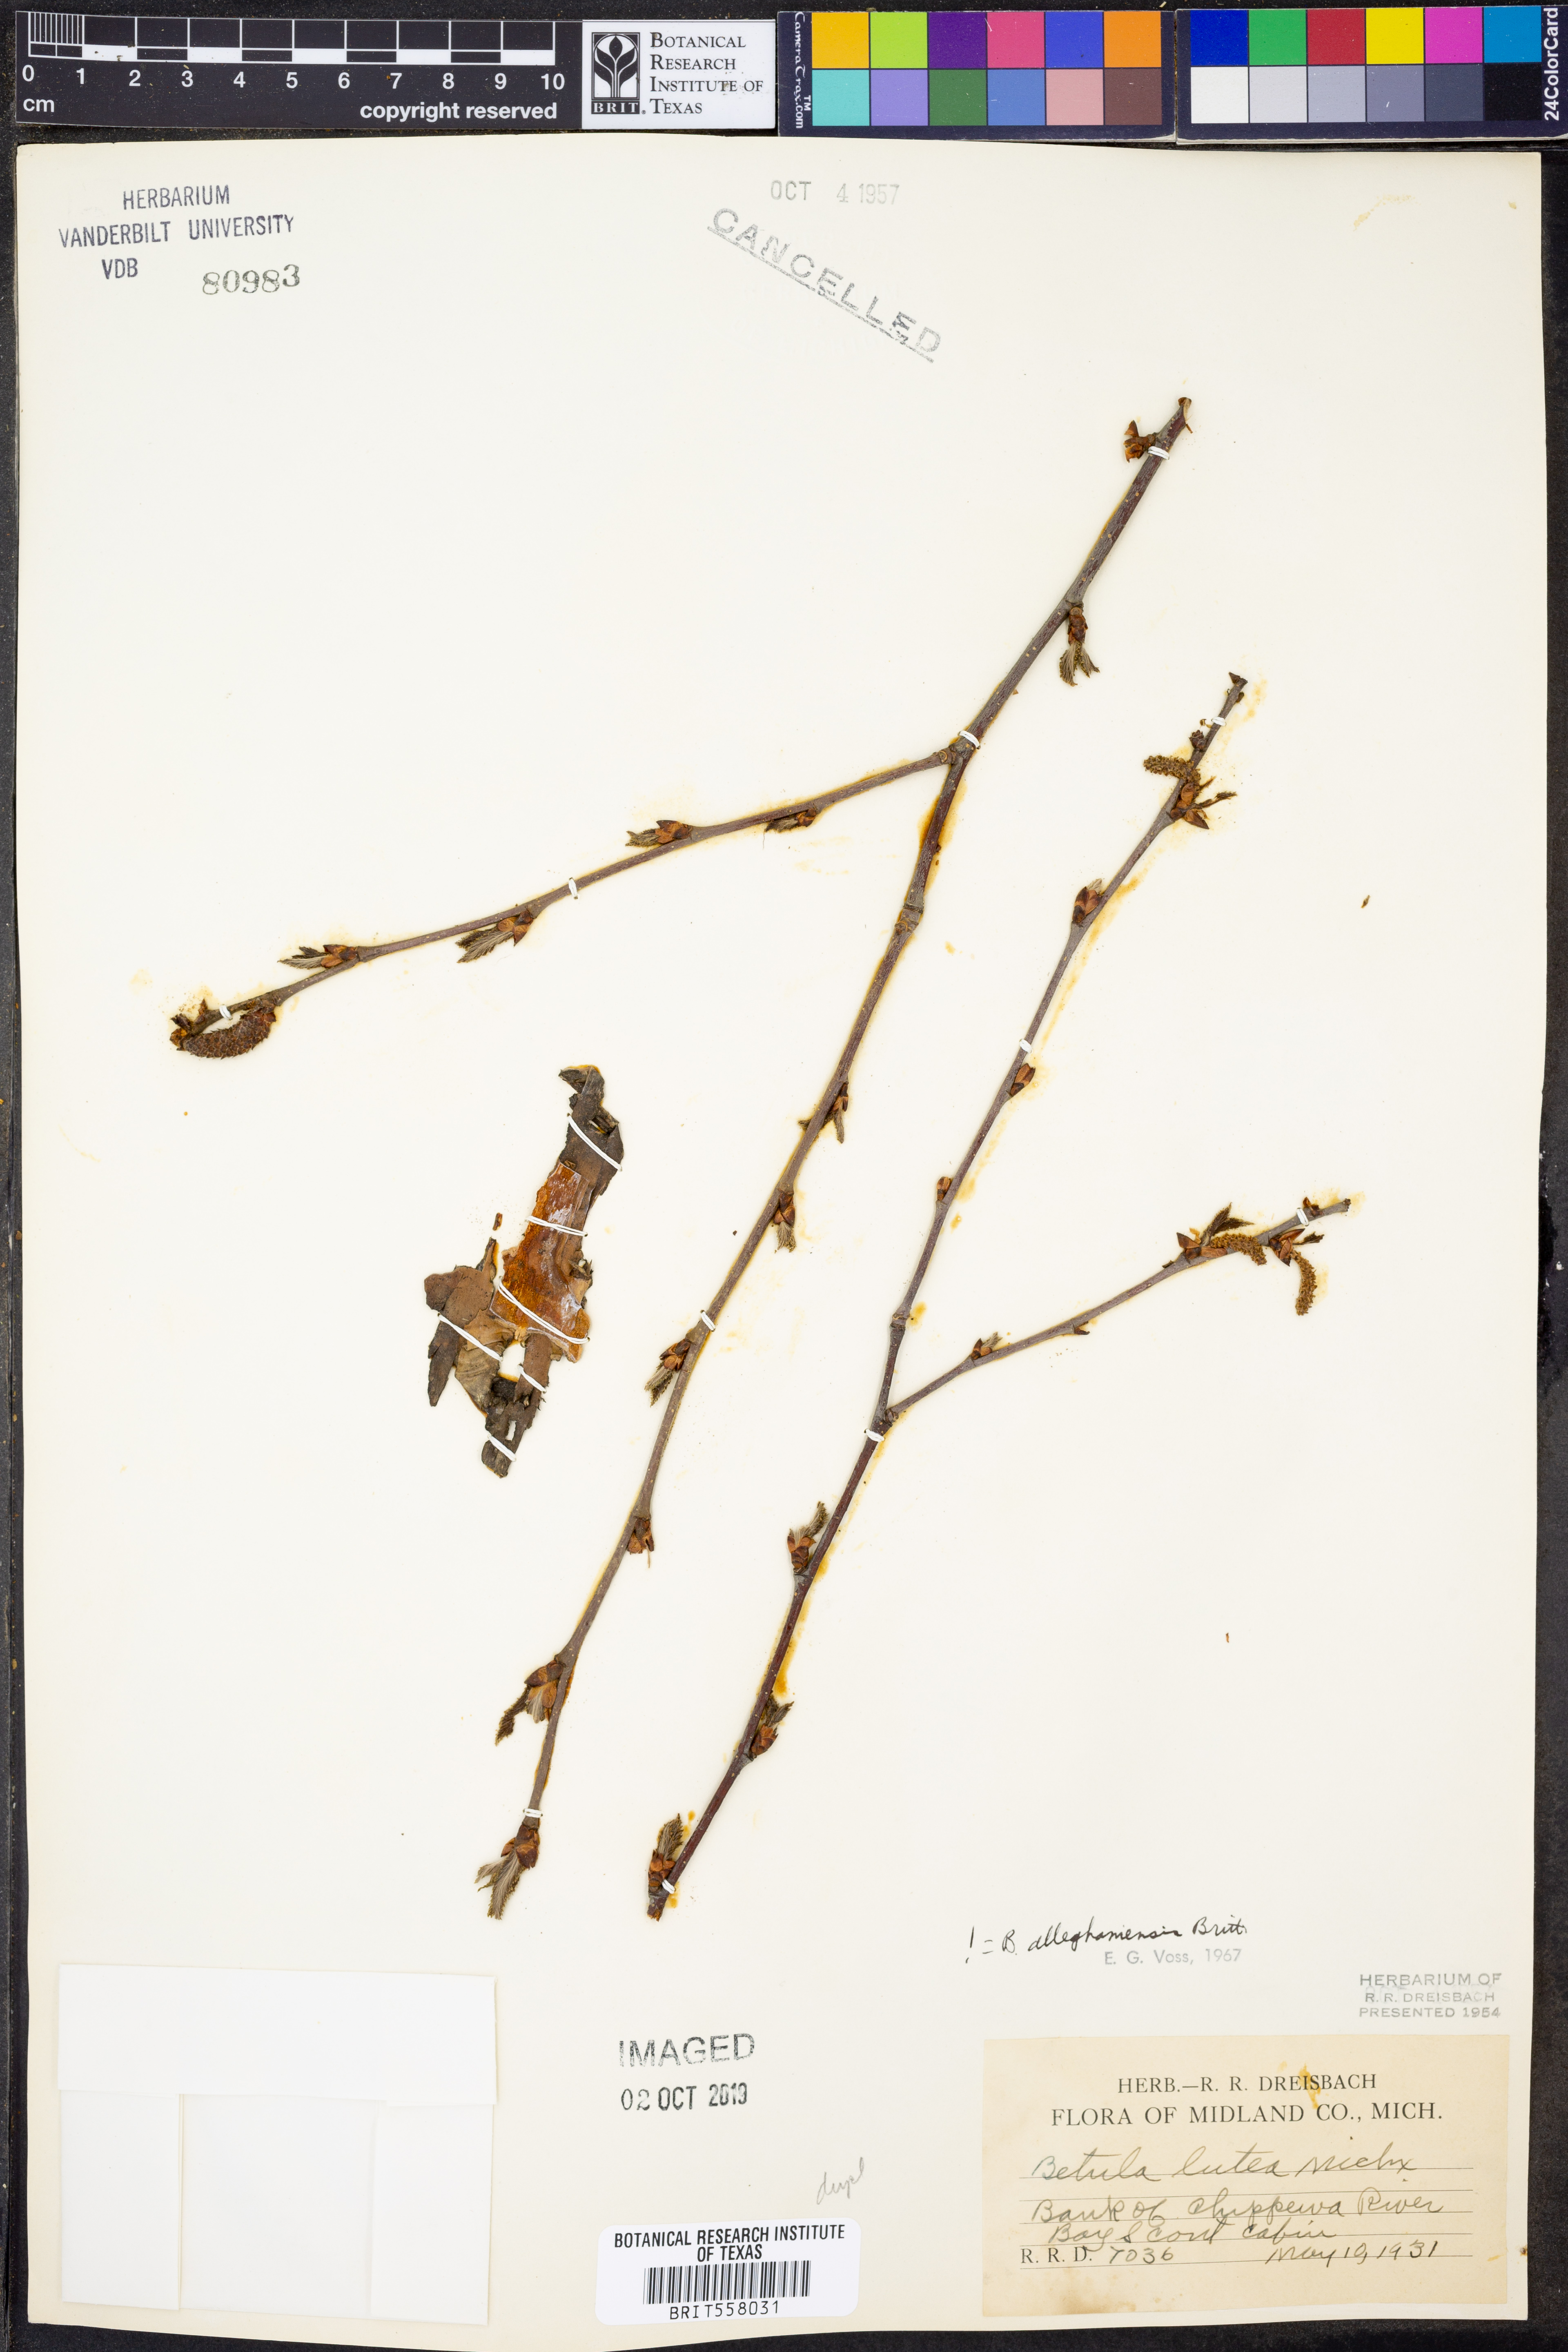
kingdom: Plantae
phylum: Tracheophyta
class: Magnoliopsida
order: Fagales
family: Betulaceae
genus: Betula
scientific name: Betula alleghaniensis
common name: Yellow birch
